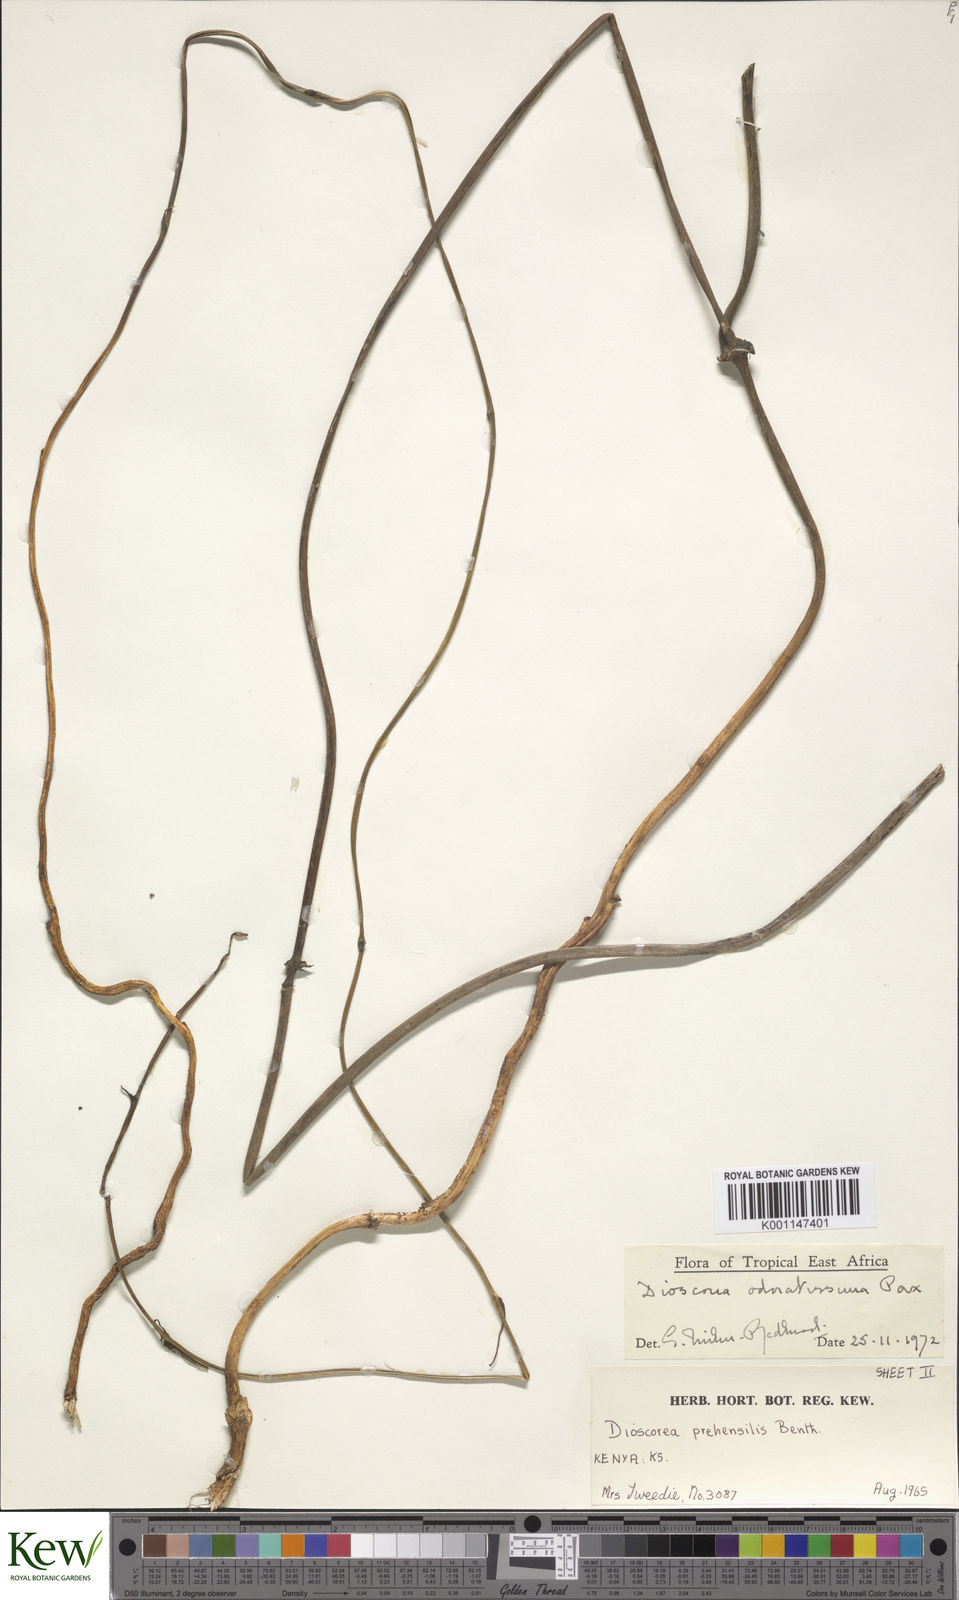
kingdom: Plantae
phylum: Tracheophyta
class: Liliopsida
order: Dioscoreales
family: Dioscoreaceae
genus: Dioscorea
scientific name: Dioscorea praehensilis
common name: Bush yam
